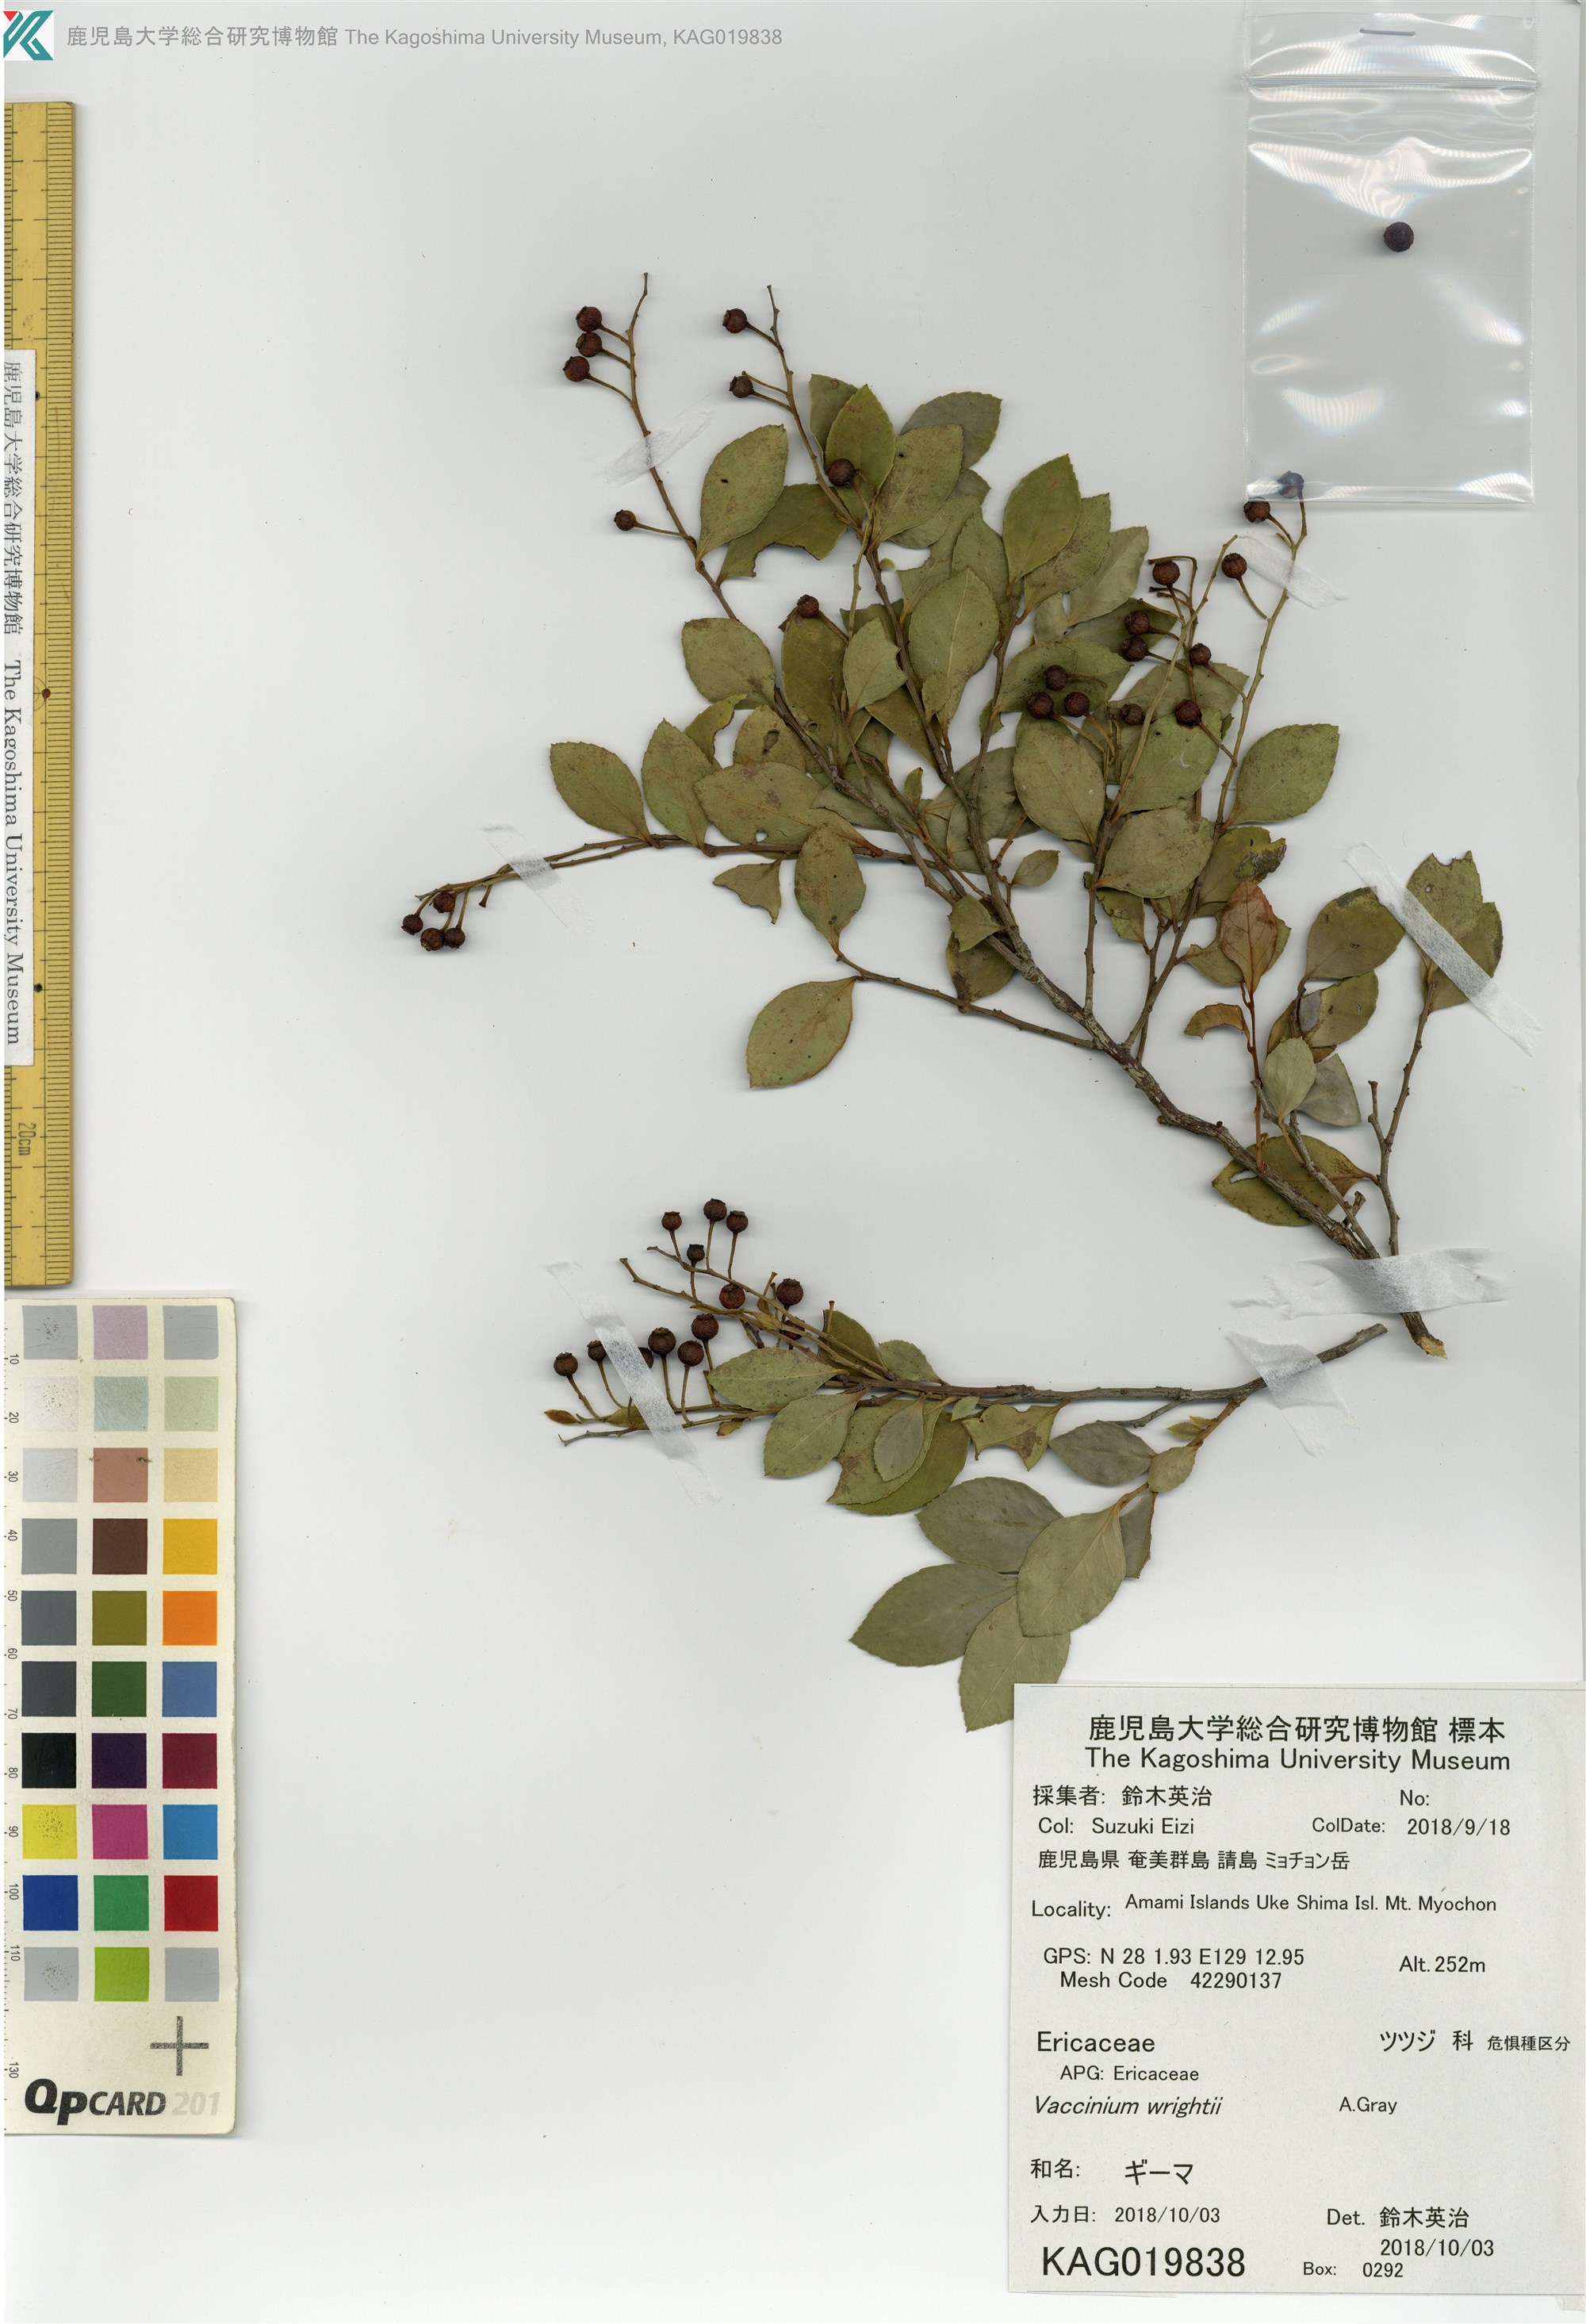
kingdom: Plantae
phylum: Tracheophyta
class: Magnoliopsida
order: Ericales
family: Ericaceae
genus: Vaccinium
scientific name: Vaccinium wrightii
